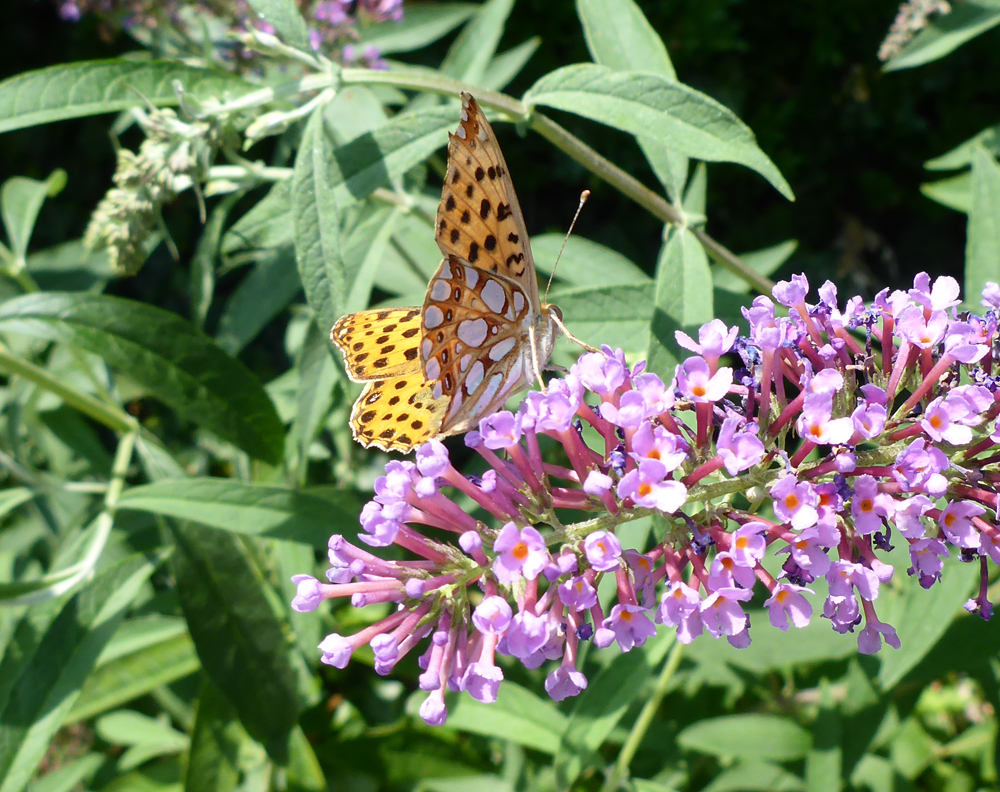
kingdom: Animalia
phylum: Arthropoda
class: Insecta
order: Lepidoptera
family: Nymphalidae
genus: Issoria
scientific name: Issoria lathonia
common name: Queen of spain fritillary
